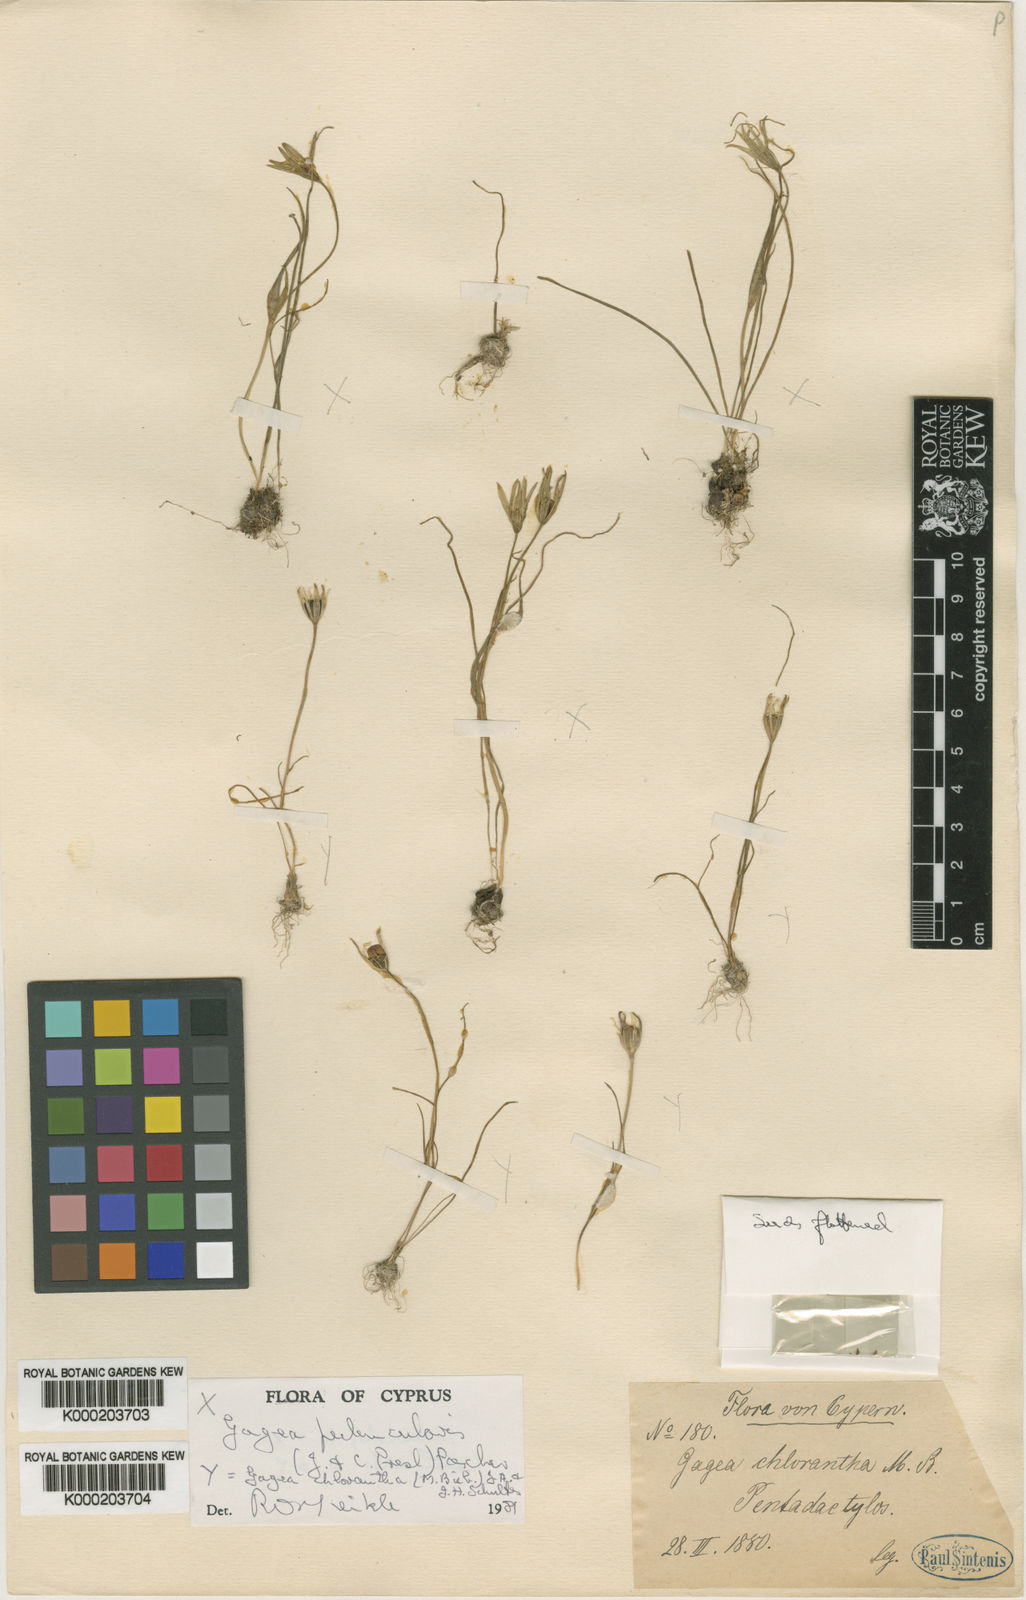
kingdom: Plantae
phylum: Tracheophyta
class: Liliopsida
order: Liliales
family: Liliaceae
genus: Gagea
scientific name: Gagea juliae
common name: Julia’s gagea
